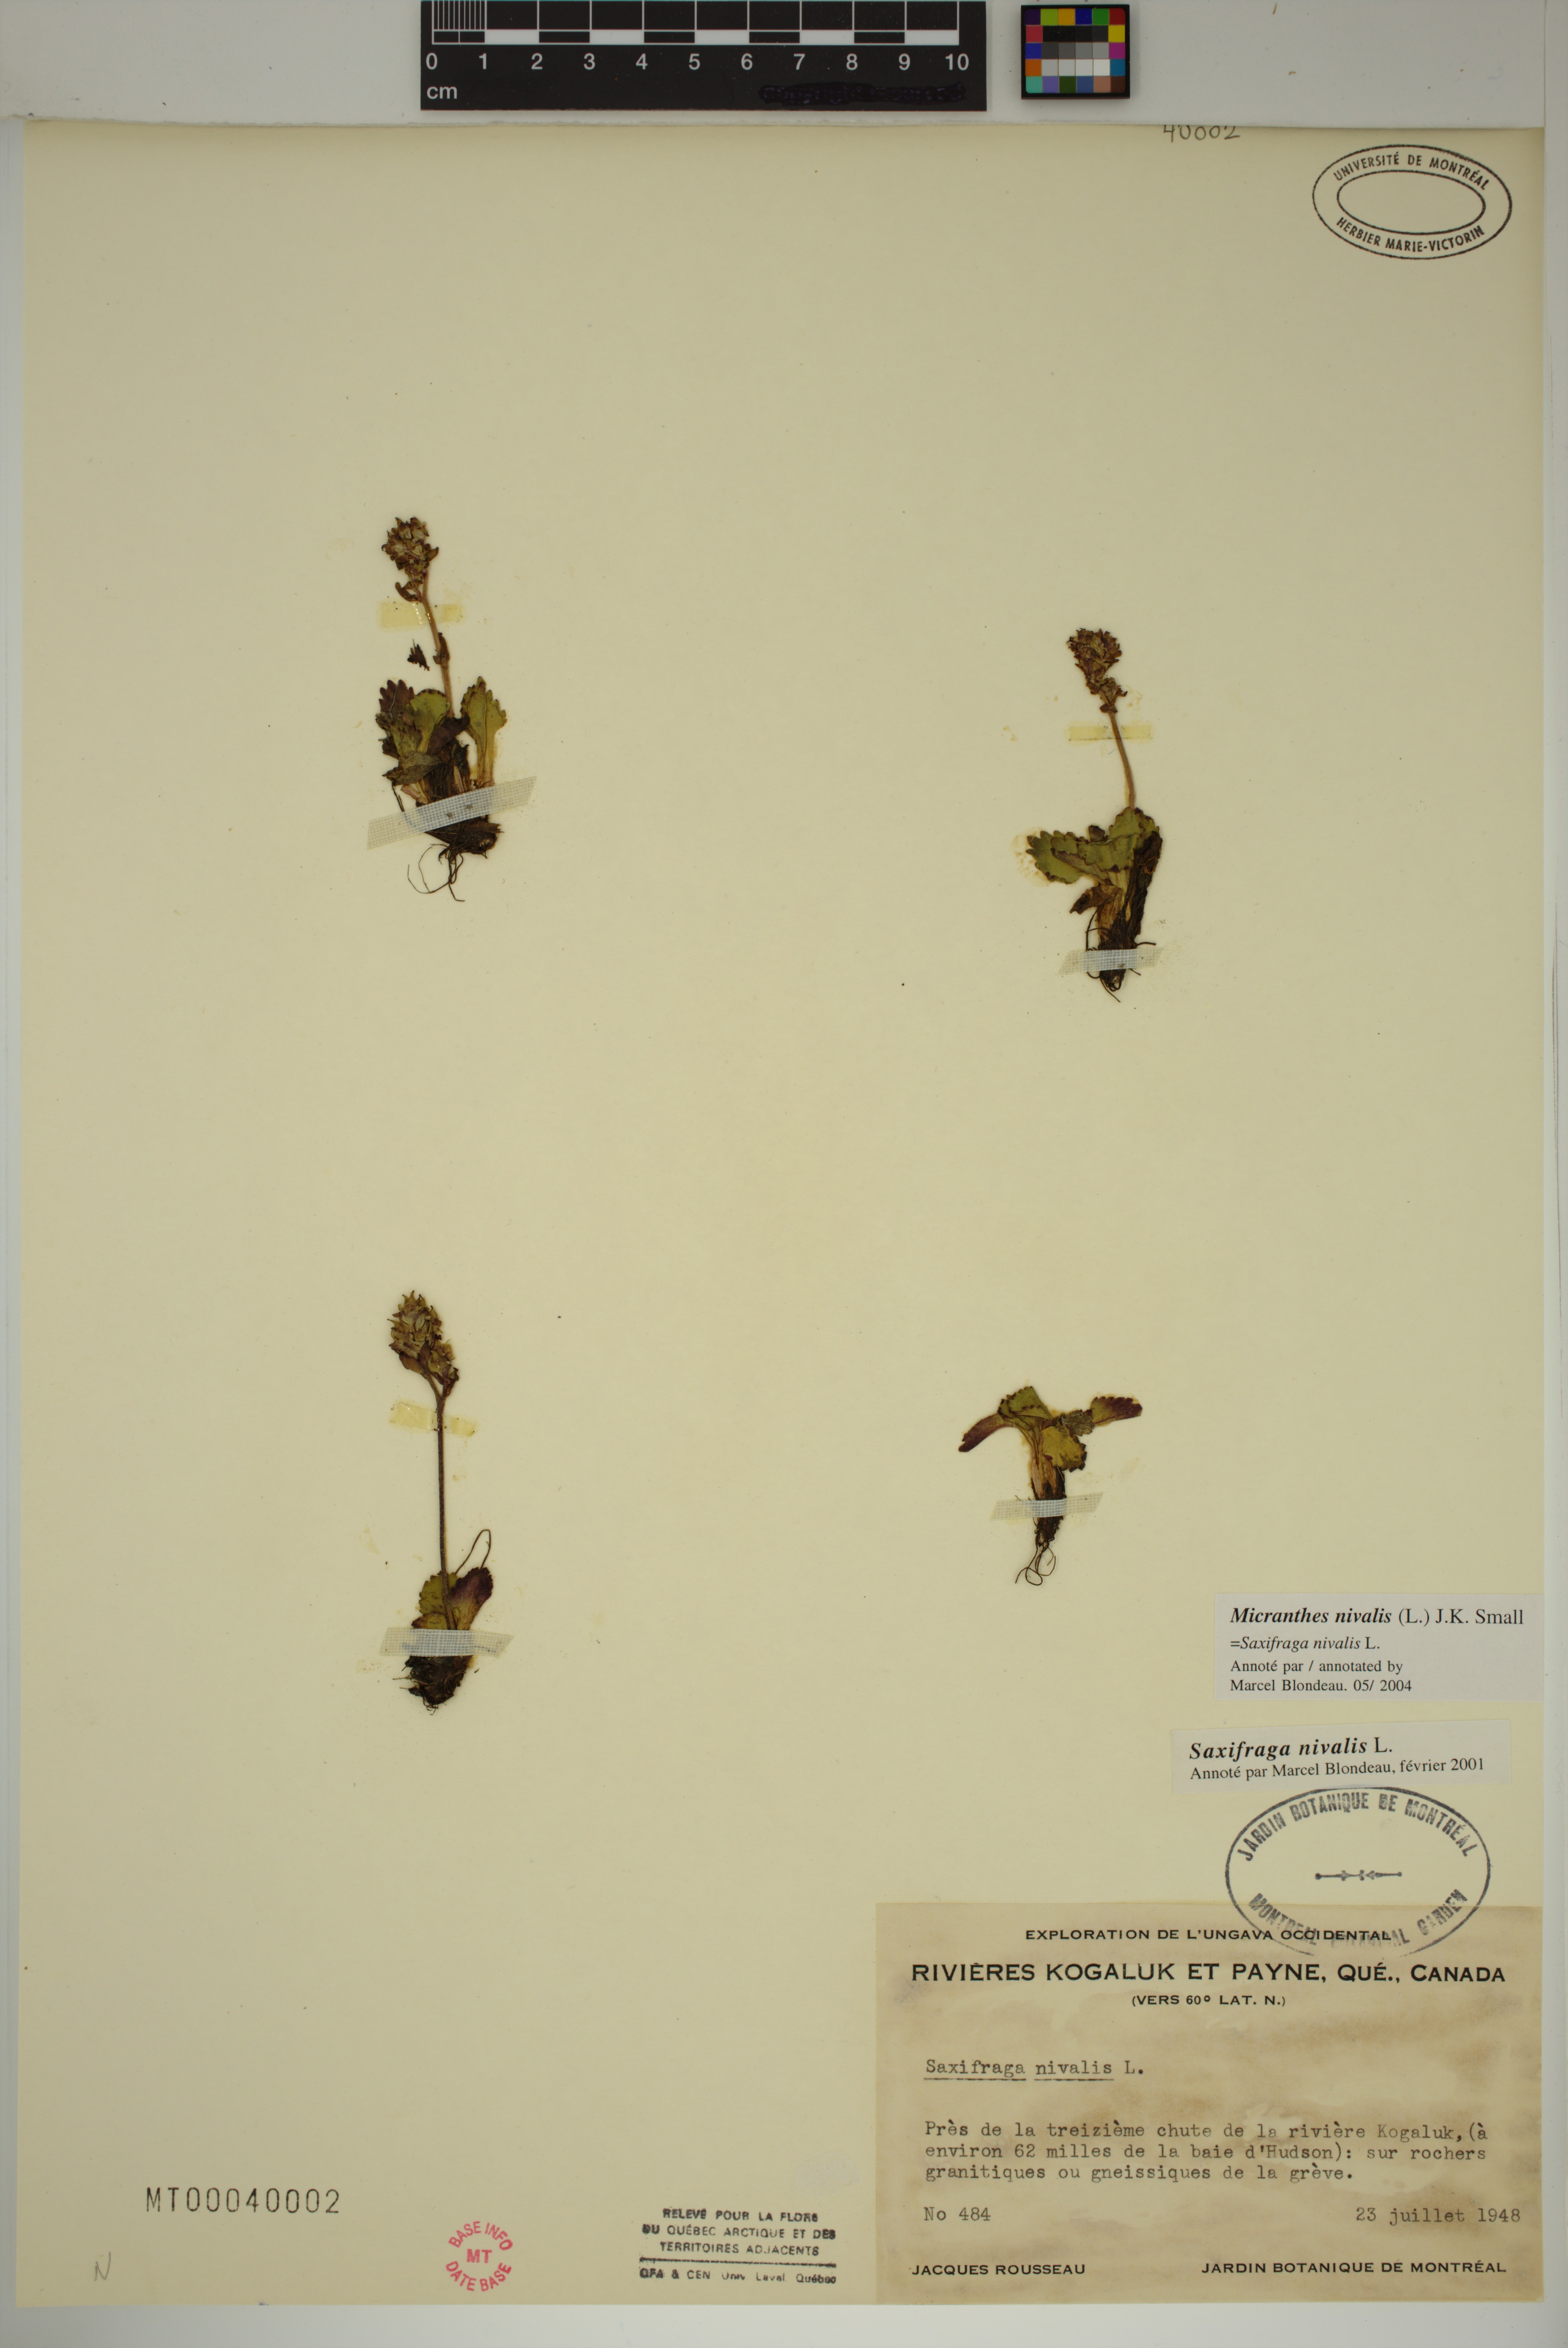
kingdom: Plantae
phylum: Tracheophyta
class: Magnoliopsida
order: Saxifragales
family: Saxifragaceae
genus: Micranthes
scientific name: Micranthes nivalis
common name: Alpine saxifrage
